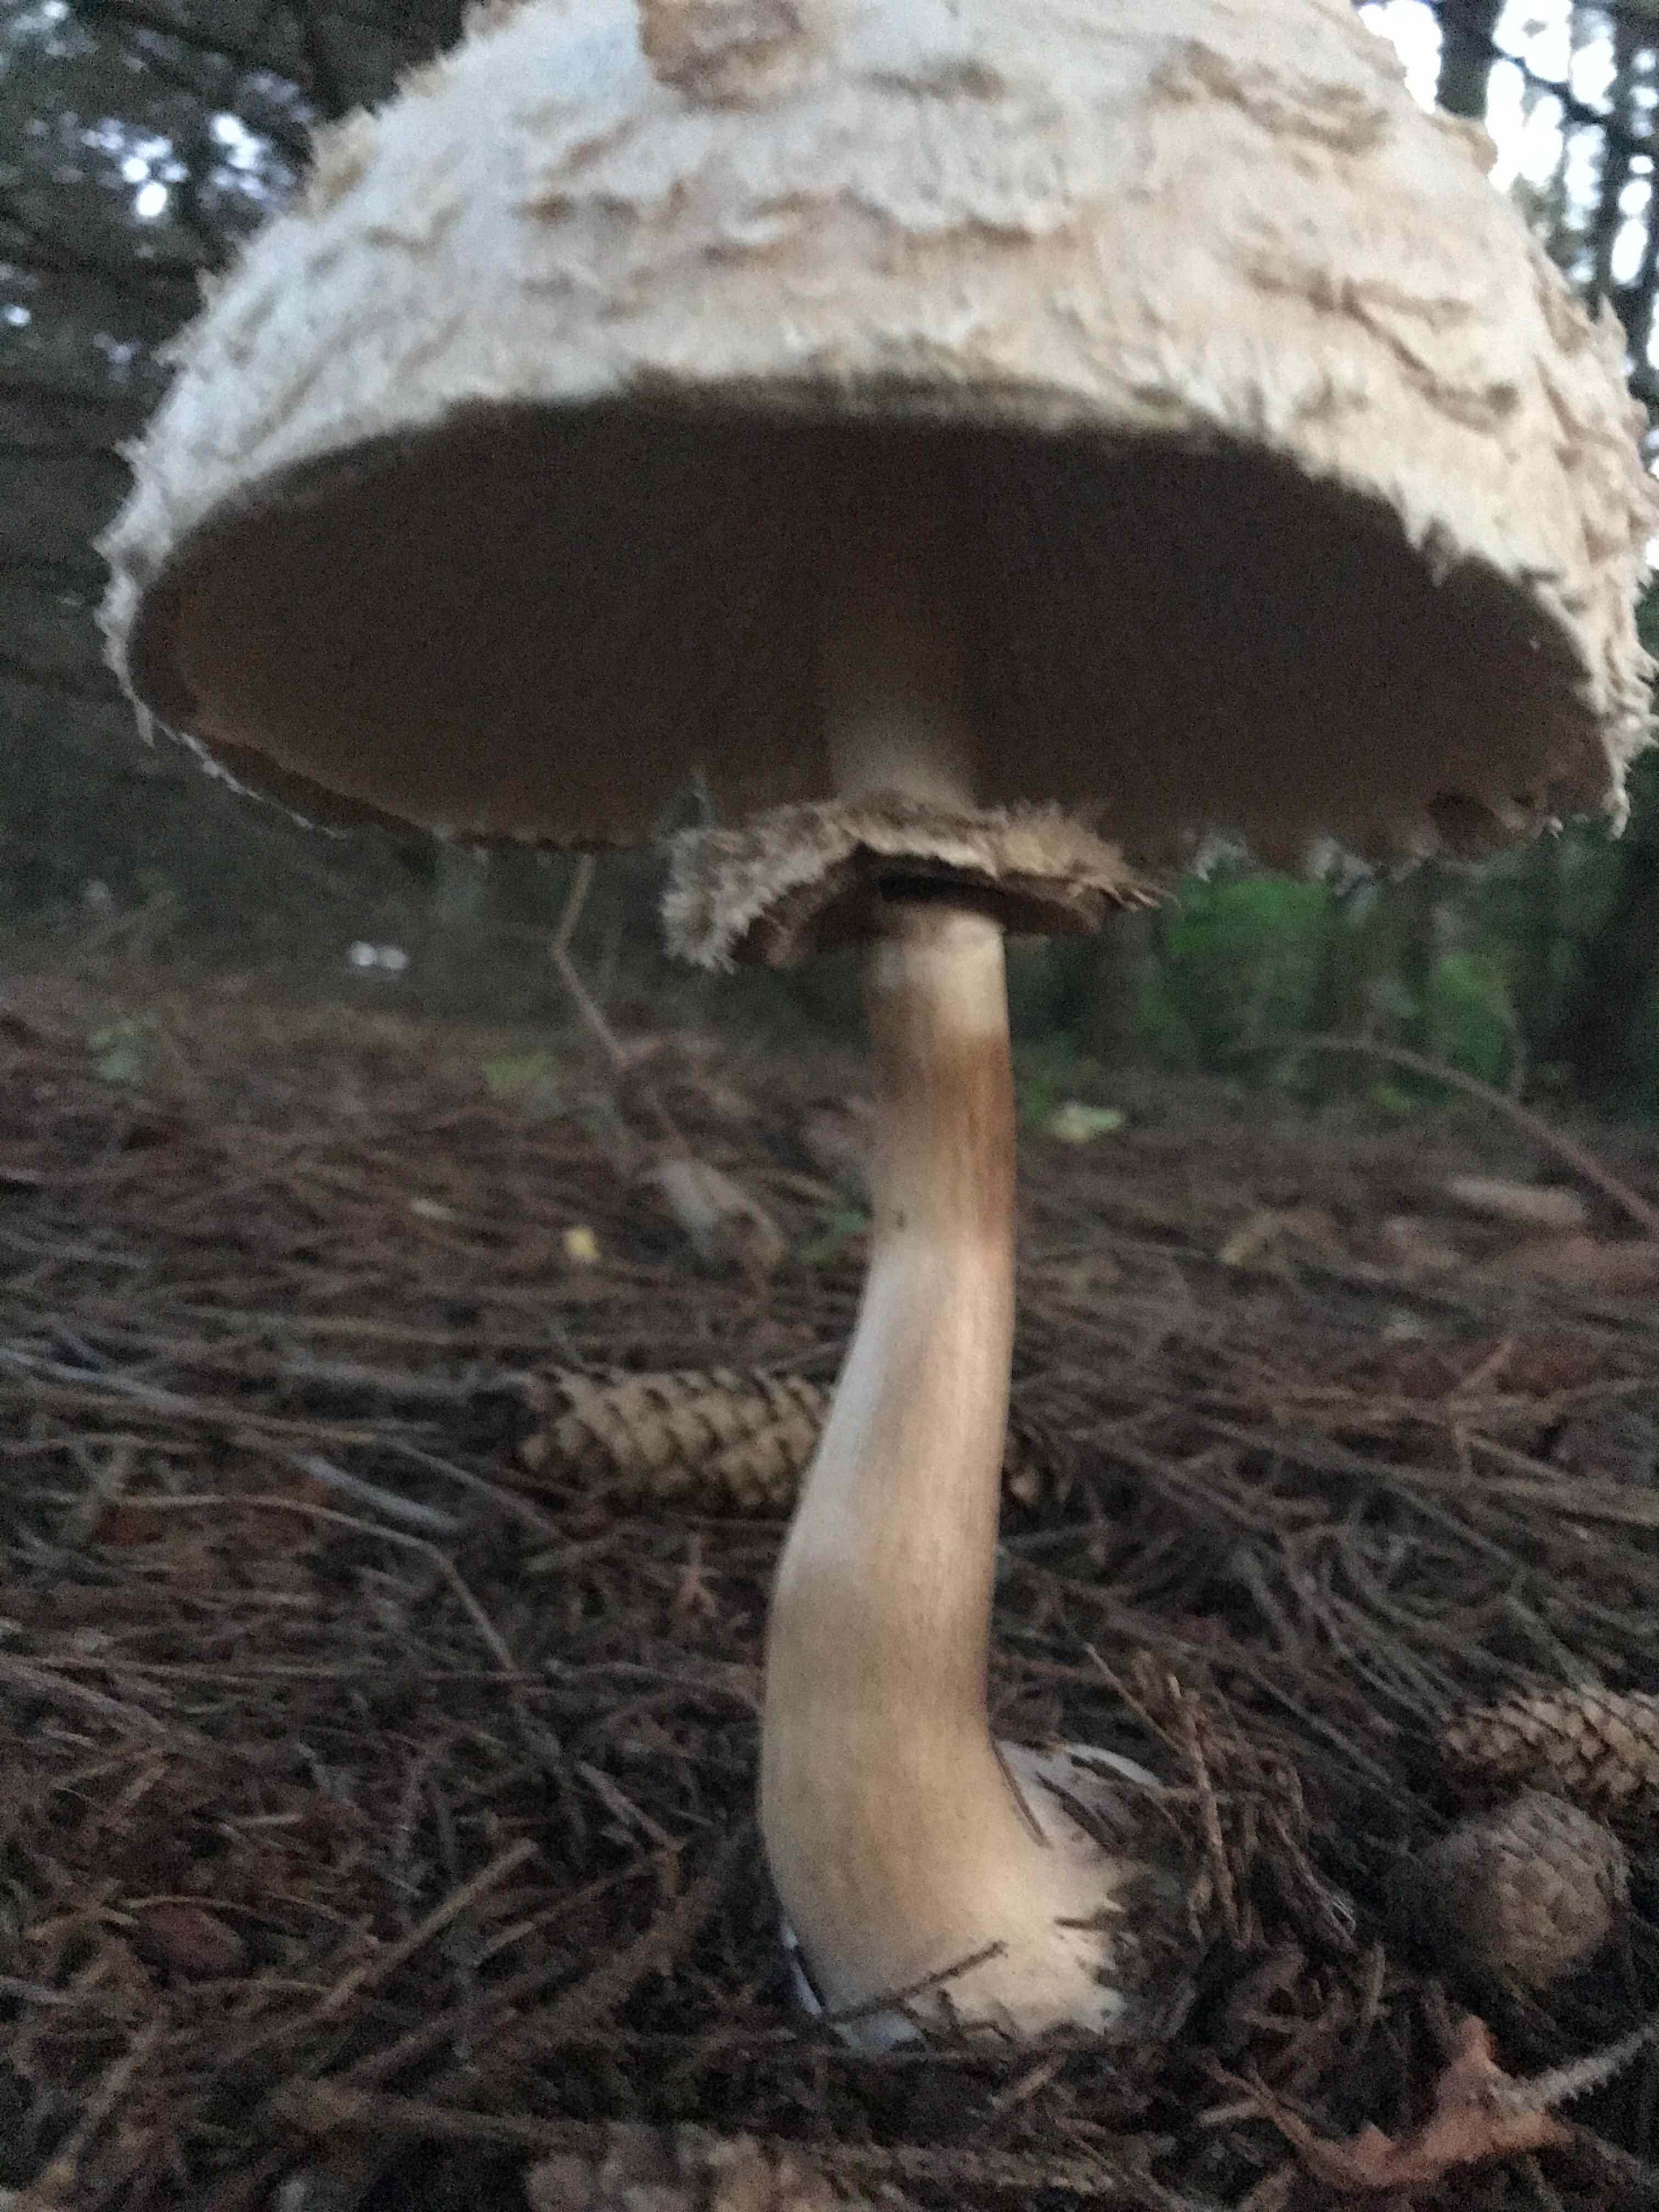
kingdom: Fungi
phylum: Basidiomycota
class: Agaricomycetes
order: Agaricales
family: Agaricaceae
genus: Chlorophyllum
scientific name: Chlorophyllum olivieri
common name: almindelig rabarberhat
